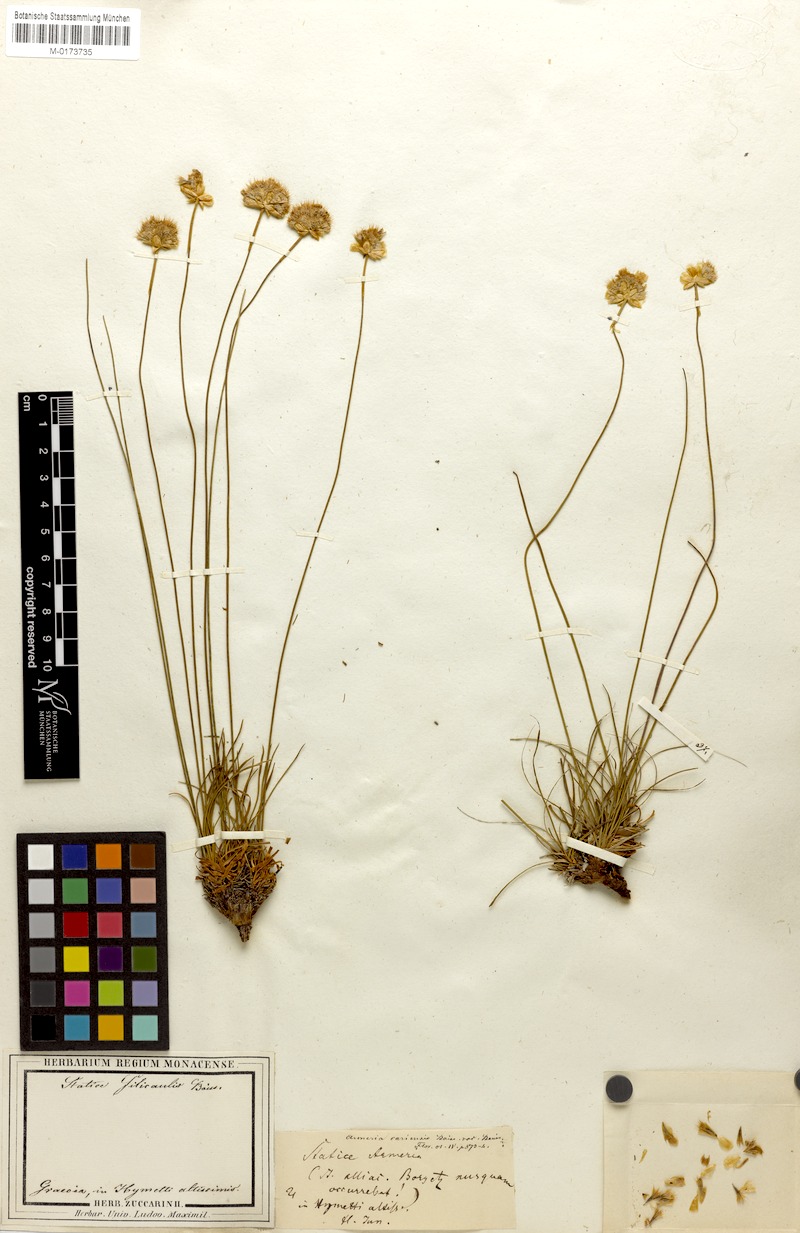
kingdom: Plantae
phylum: Tracheophyta
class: Magnoliopsida
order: Caryophyllales
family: Plumbaginaceae
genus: Armeria
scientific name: Armeria cariensis
